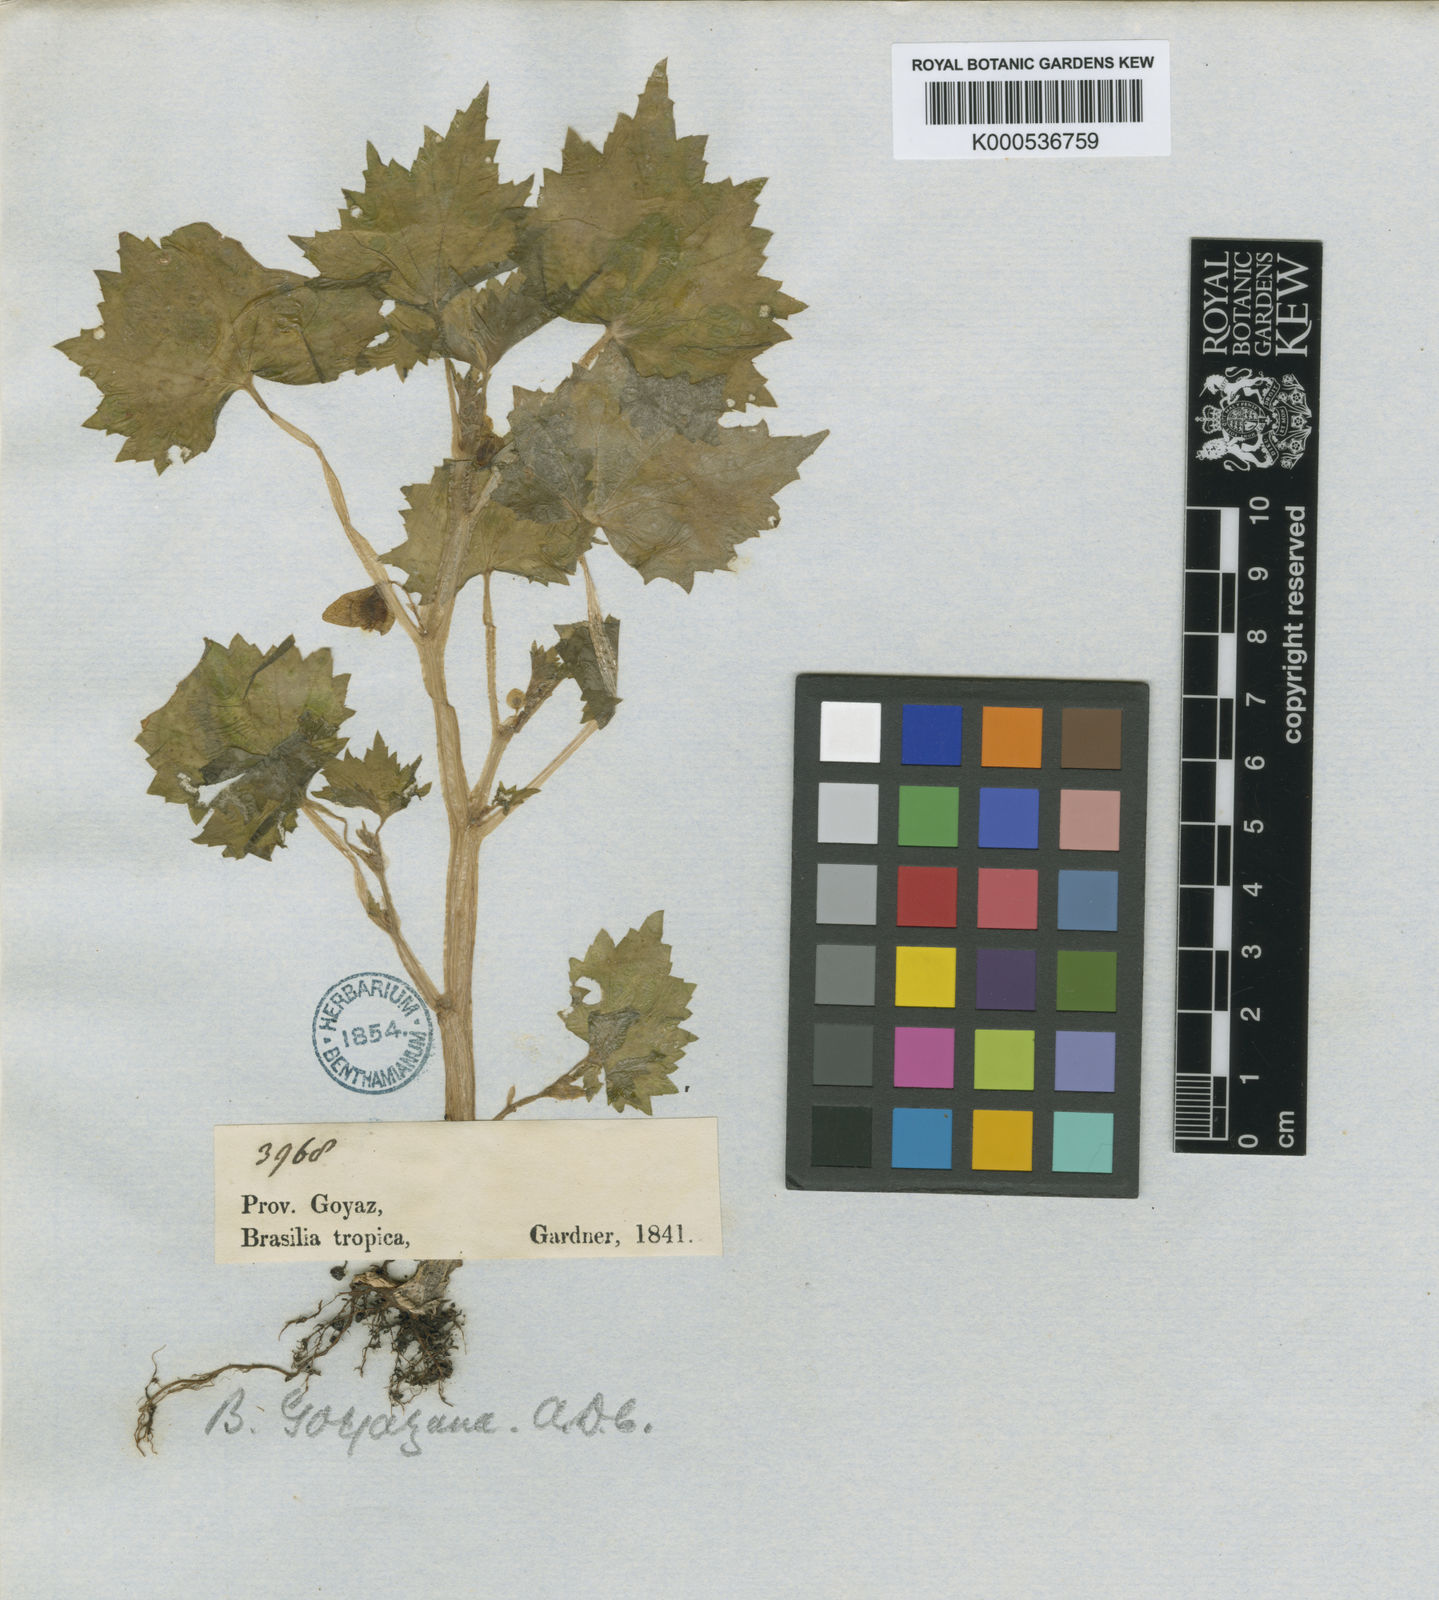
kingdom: Plantae
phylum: Tracheophyta
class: Magnoliopsida
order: Cucurbitales
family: Begoniaceae
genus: Begonia
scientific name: Begonia exigua
